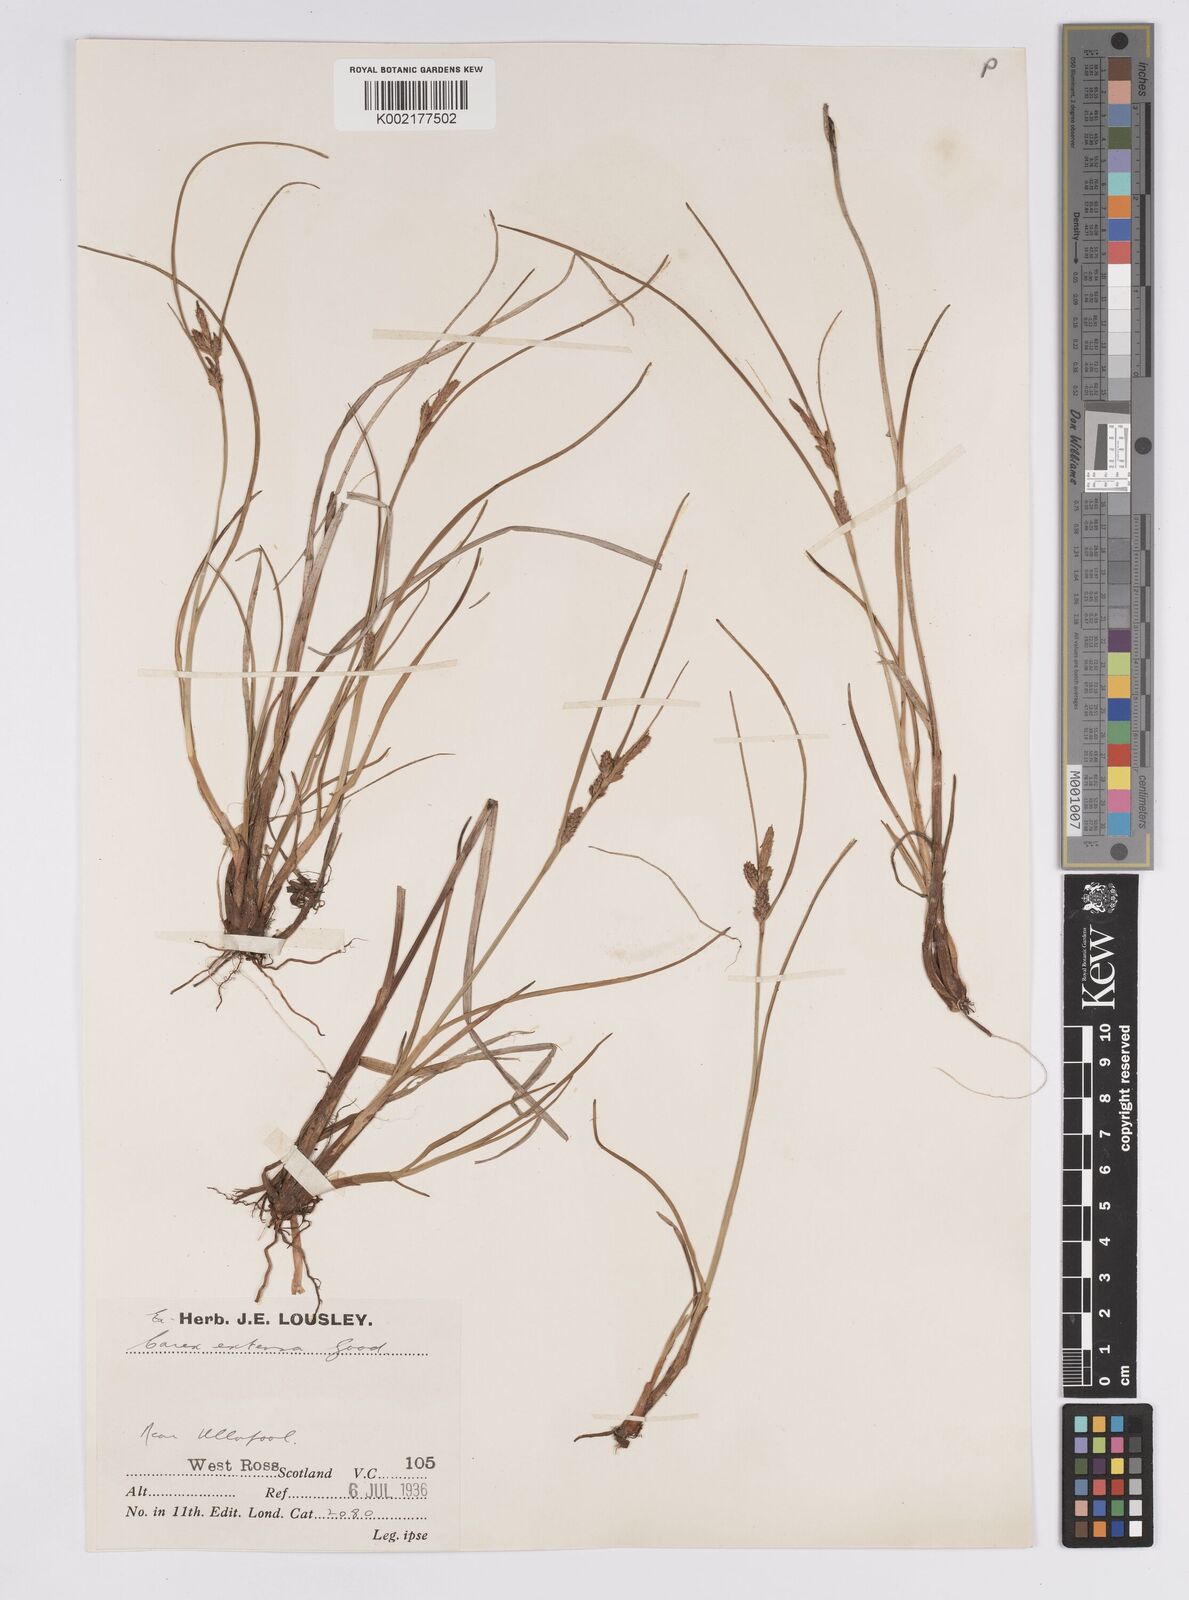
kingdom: Plantae
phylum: Tracheophyta
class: Liliopsida
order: Poales
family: Cyperaceae
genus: Carex
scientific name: Carex extensa
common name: Long-bracted sedge
